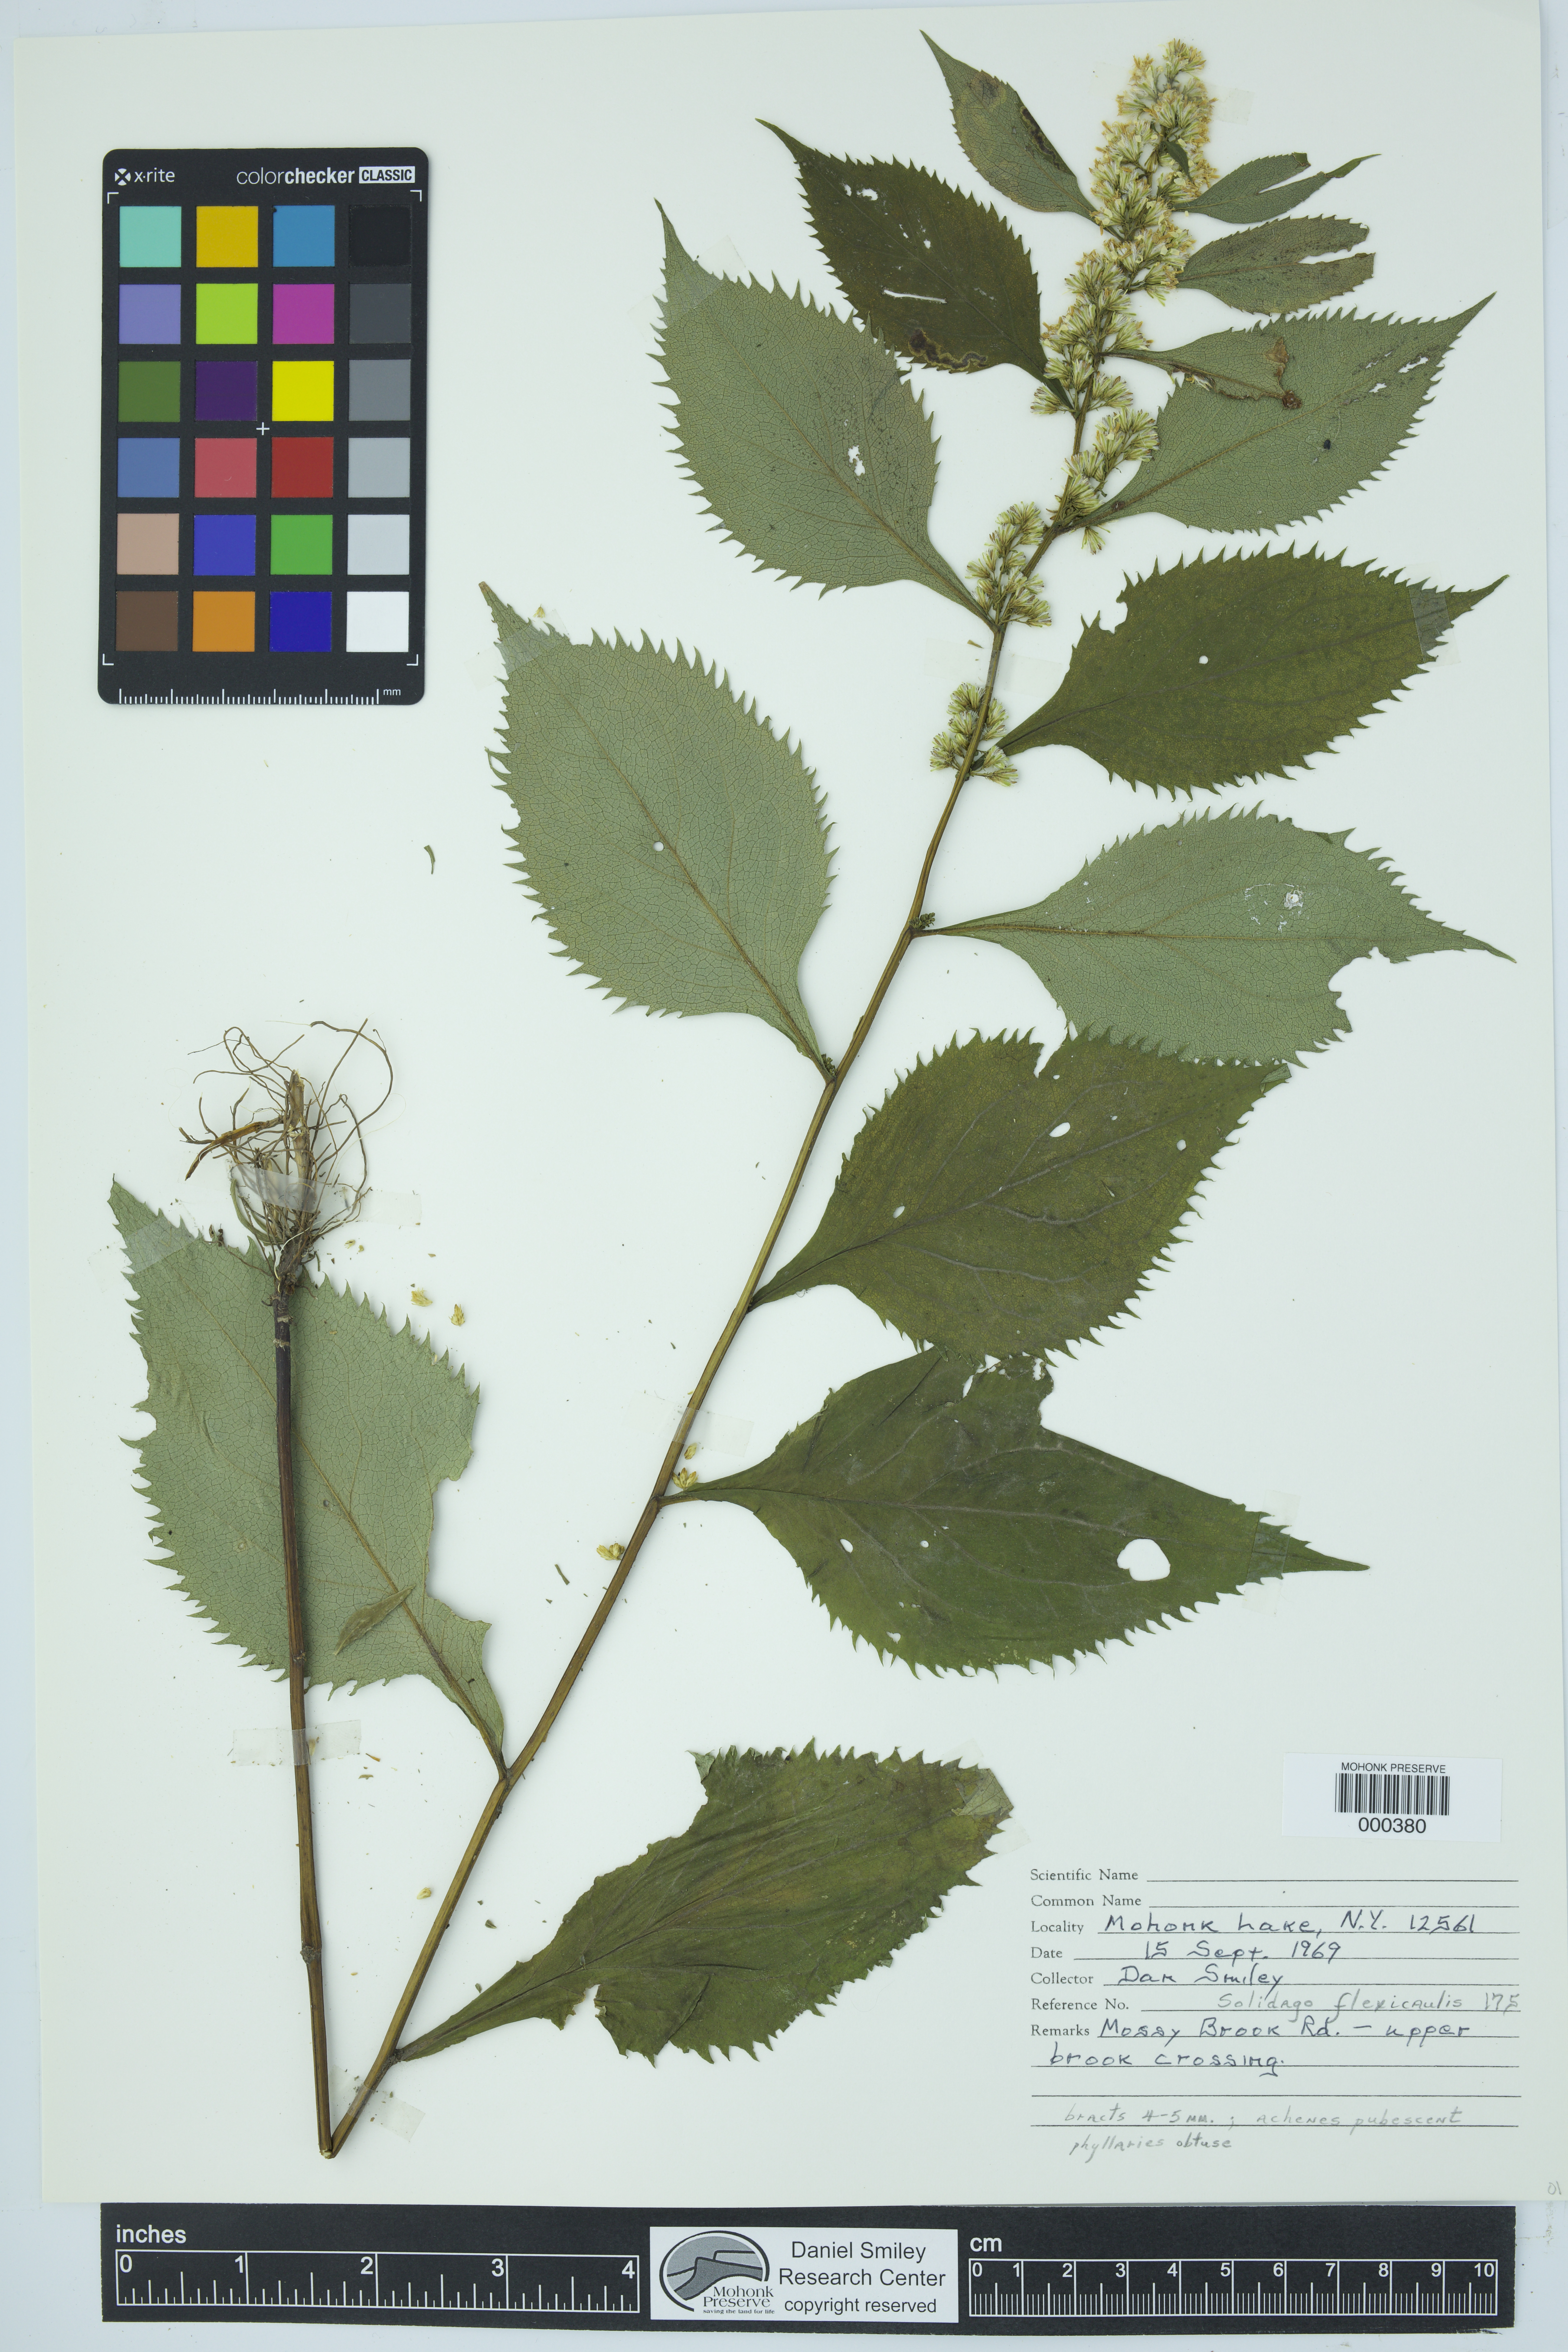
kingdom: Plantae
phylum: Tracheophyta
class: Magnoliopsida
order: Asterales
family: Asteraceae
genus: Solidago
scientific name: Solidago flexicaulis
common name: Zig-zag goldenrod
